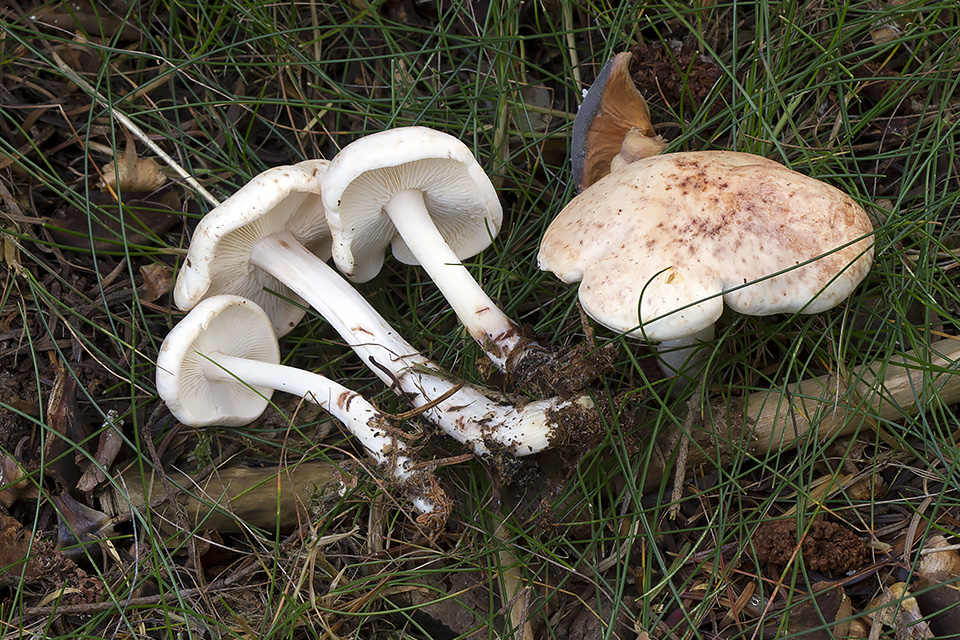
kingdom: Fungi
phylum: Basidiomycota
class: Agaricomycetes
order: Agaricales
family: Omphalotaceae
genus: Rhodocollybia
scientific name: Rhodocollybia maculata
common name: plettet fladhat
